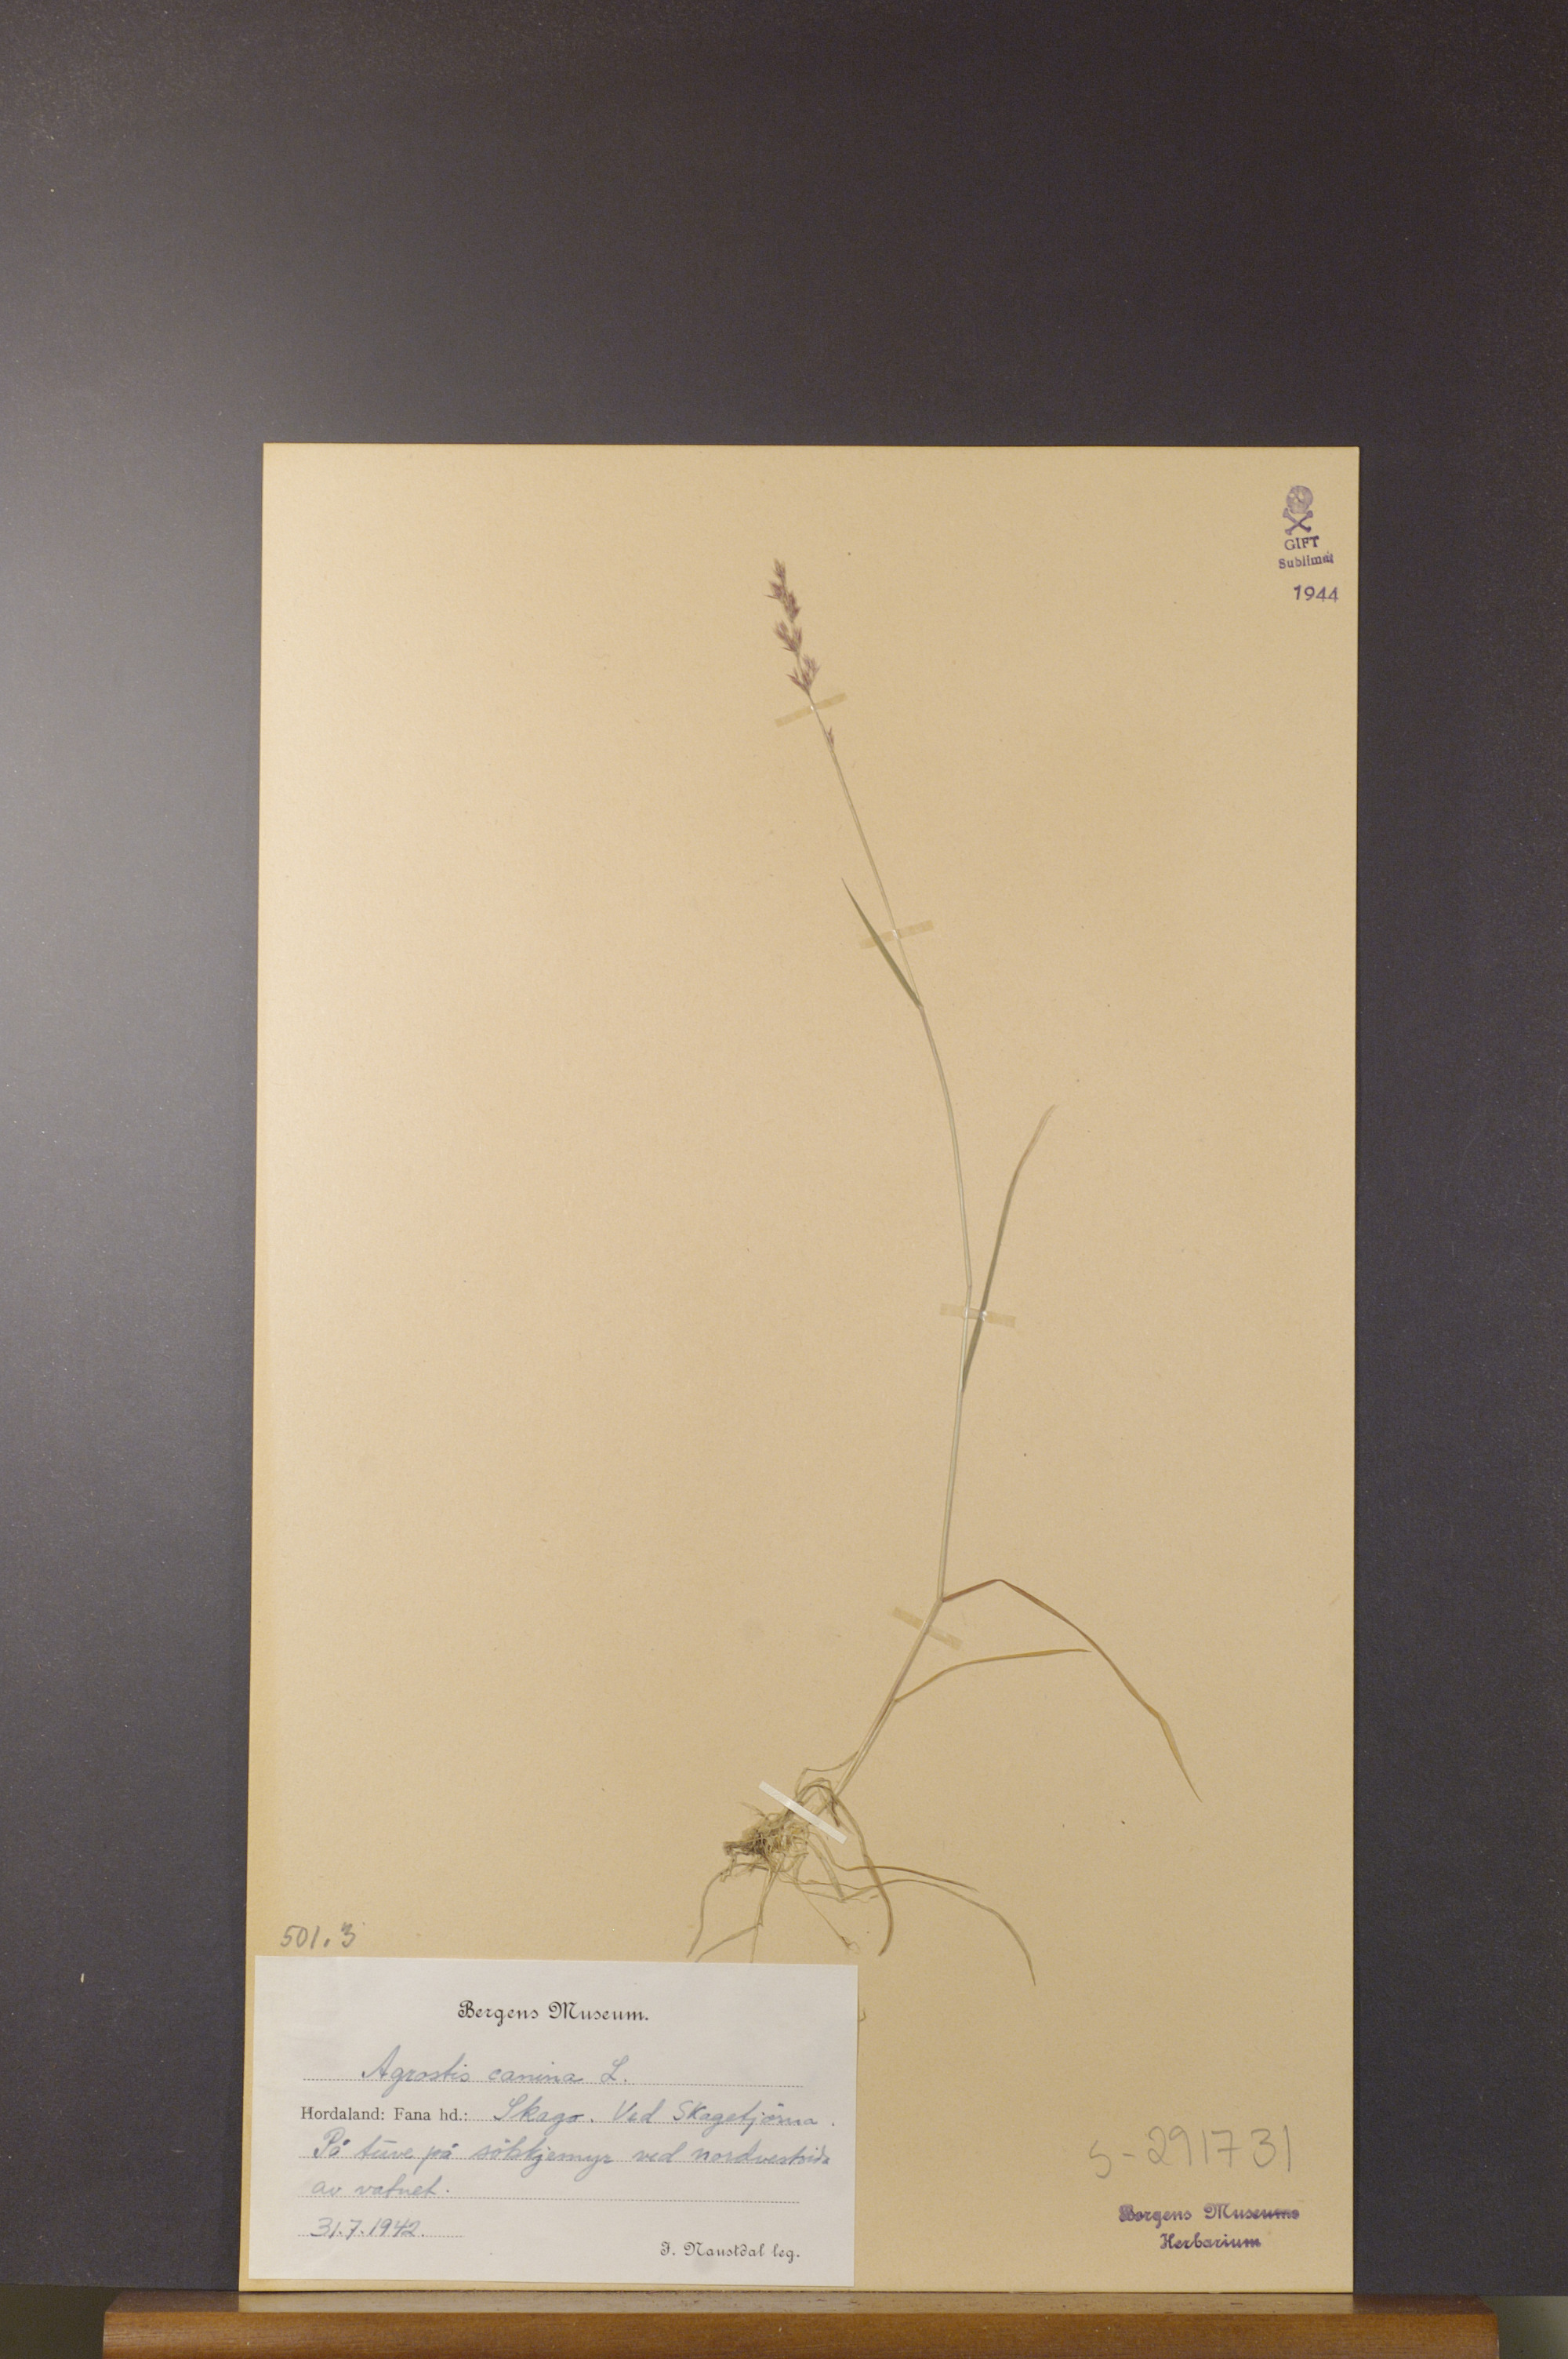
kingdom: Plantae
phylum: Tracheophyta
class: Liliopsida
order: Poales
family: Poaceae
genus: Agrostis
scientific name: Agrostis canina
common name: Velvet bent
